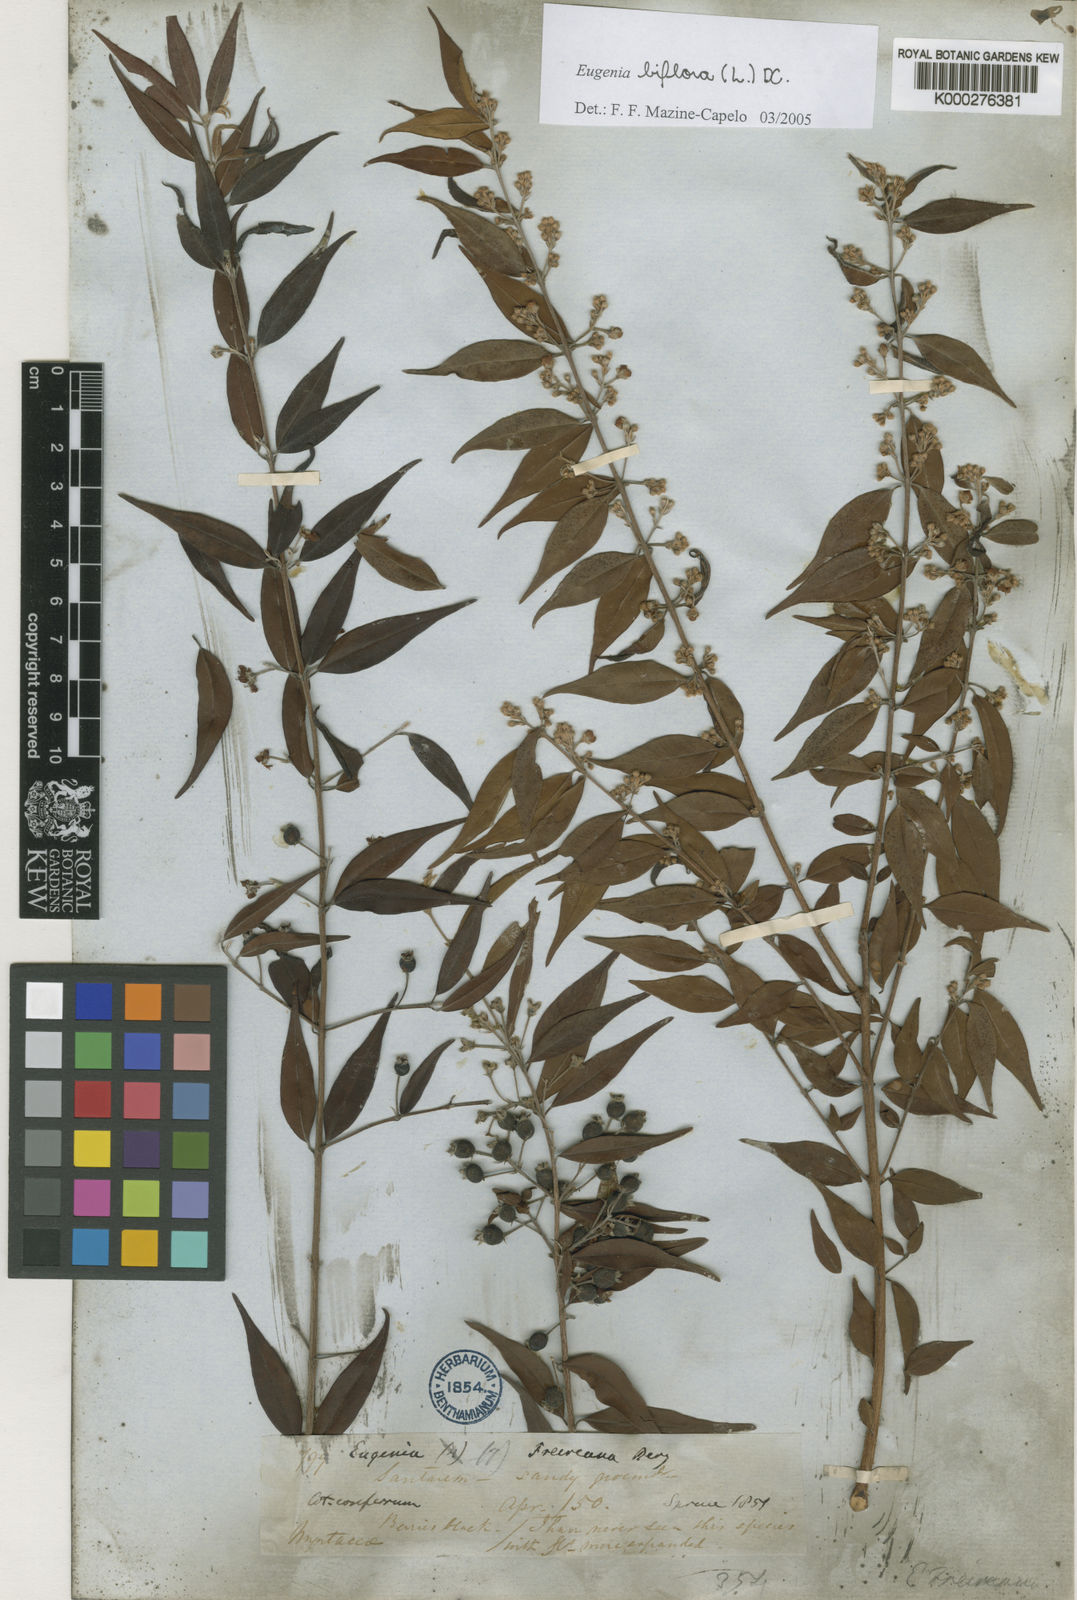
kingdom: Plantae
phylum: Tracheophyta
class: Magnoliopsida
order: Myrtales
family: Myrtaceae
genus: Eugenia
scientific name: Eugenia biflora
